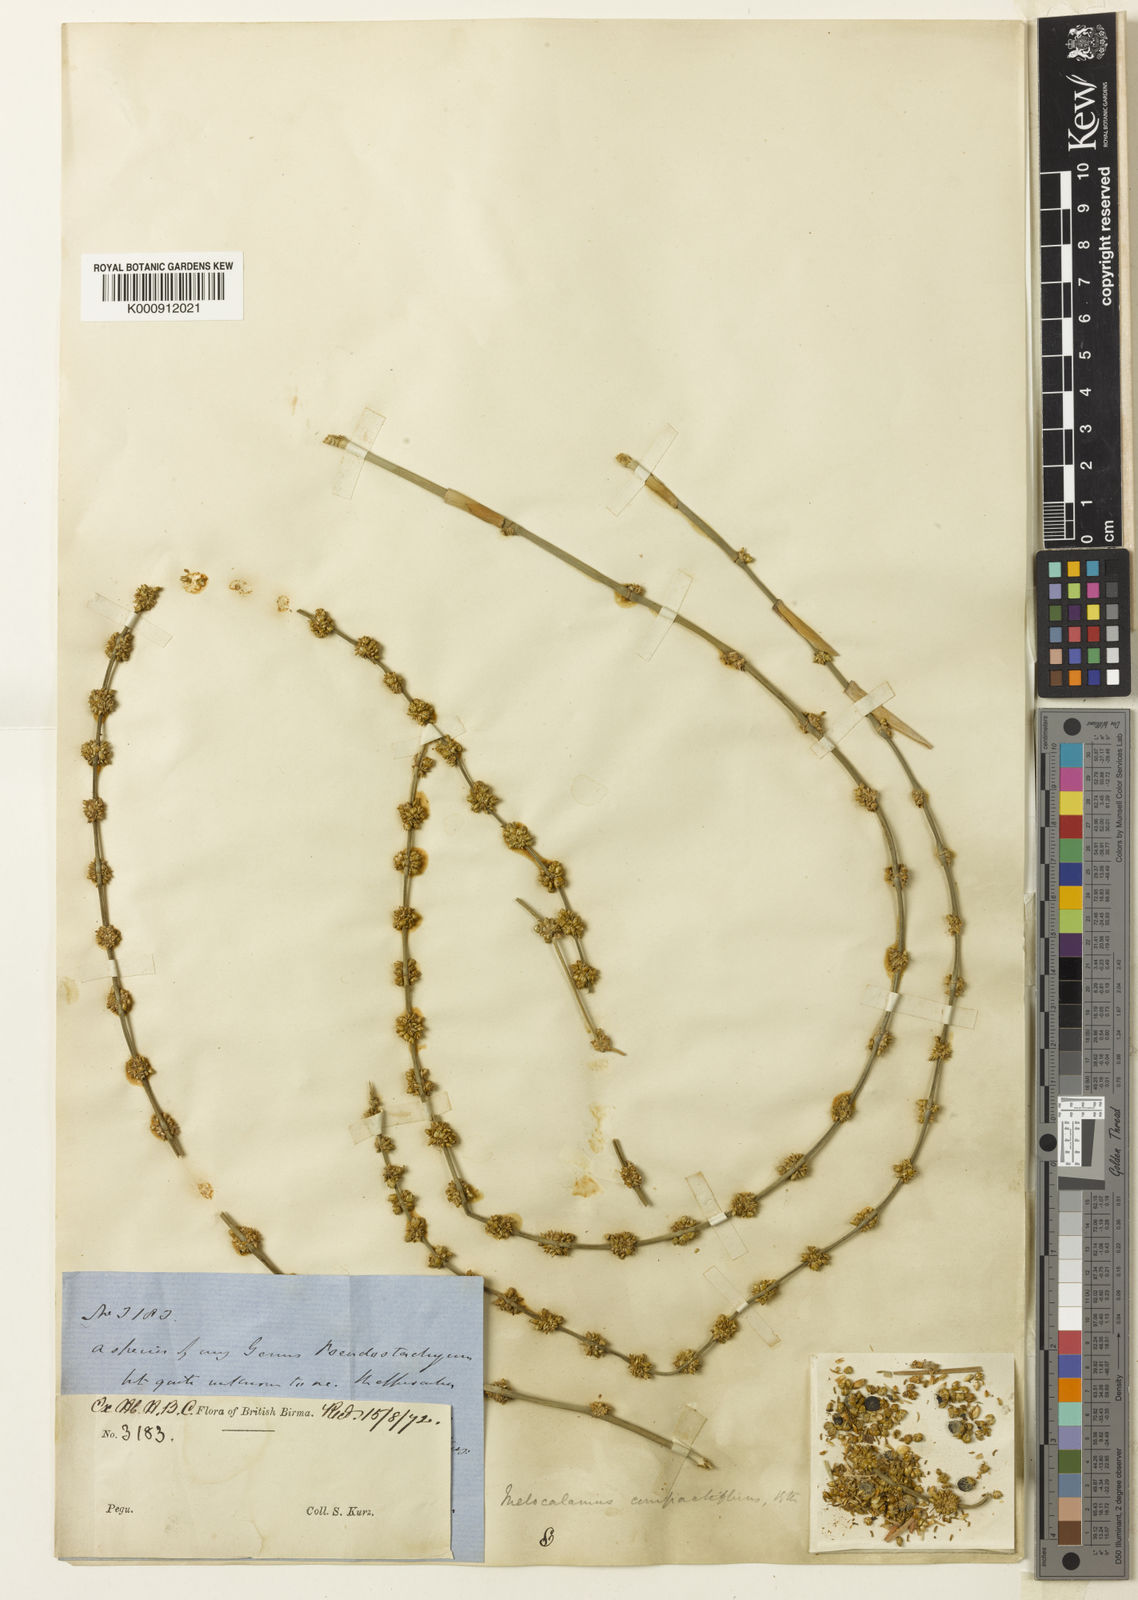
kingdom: Plantae
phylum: Tracheophyta
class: Liliopsida
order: Poales
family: Poaceae
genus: Melocalamus
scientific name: Melocalamus compactiflorus
